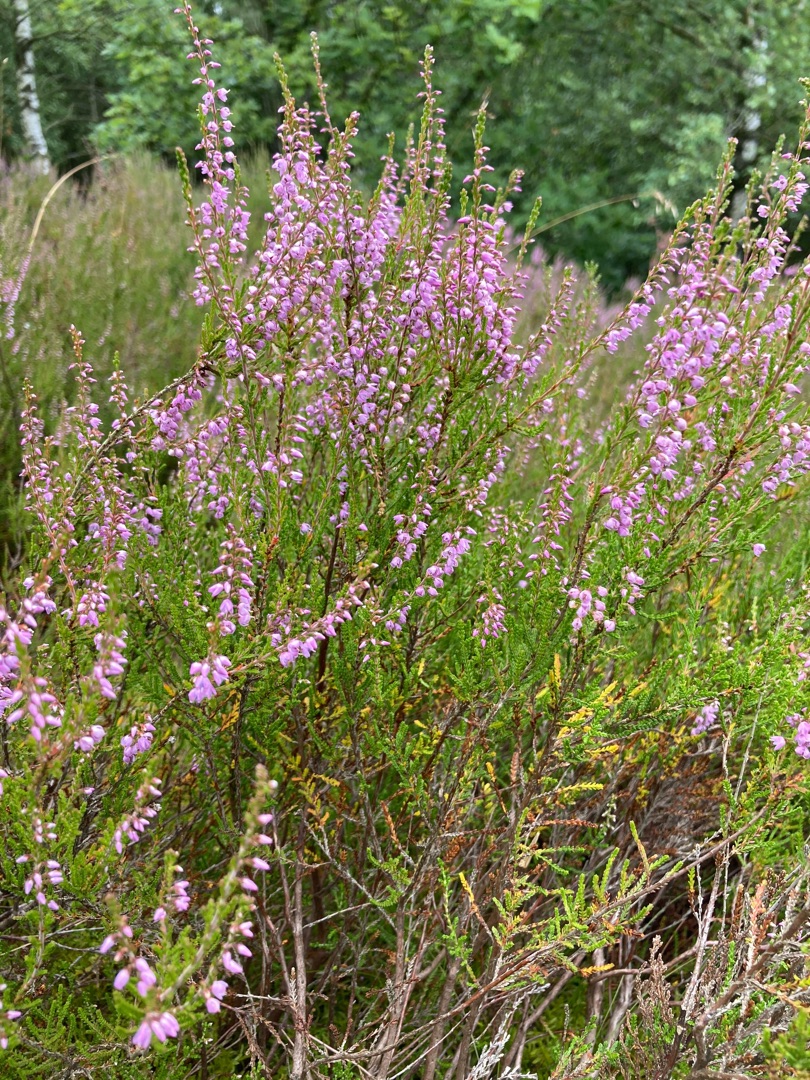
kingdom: Plantae
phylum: Tracheophyta
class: Magnoliopsida
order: Ericales
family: Ericaceae
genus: Calluna
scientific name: Calluna vulgaris
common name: Hedelyng
